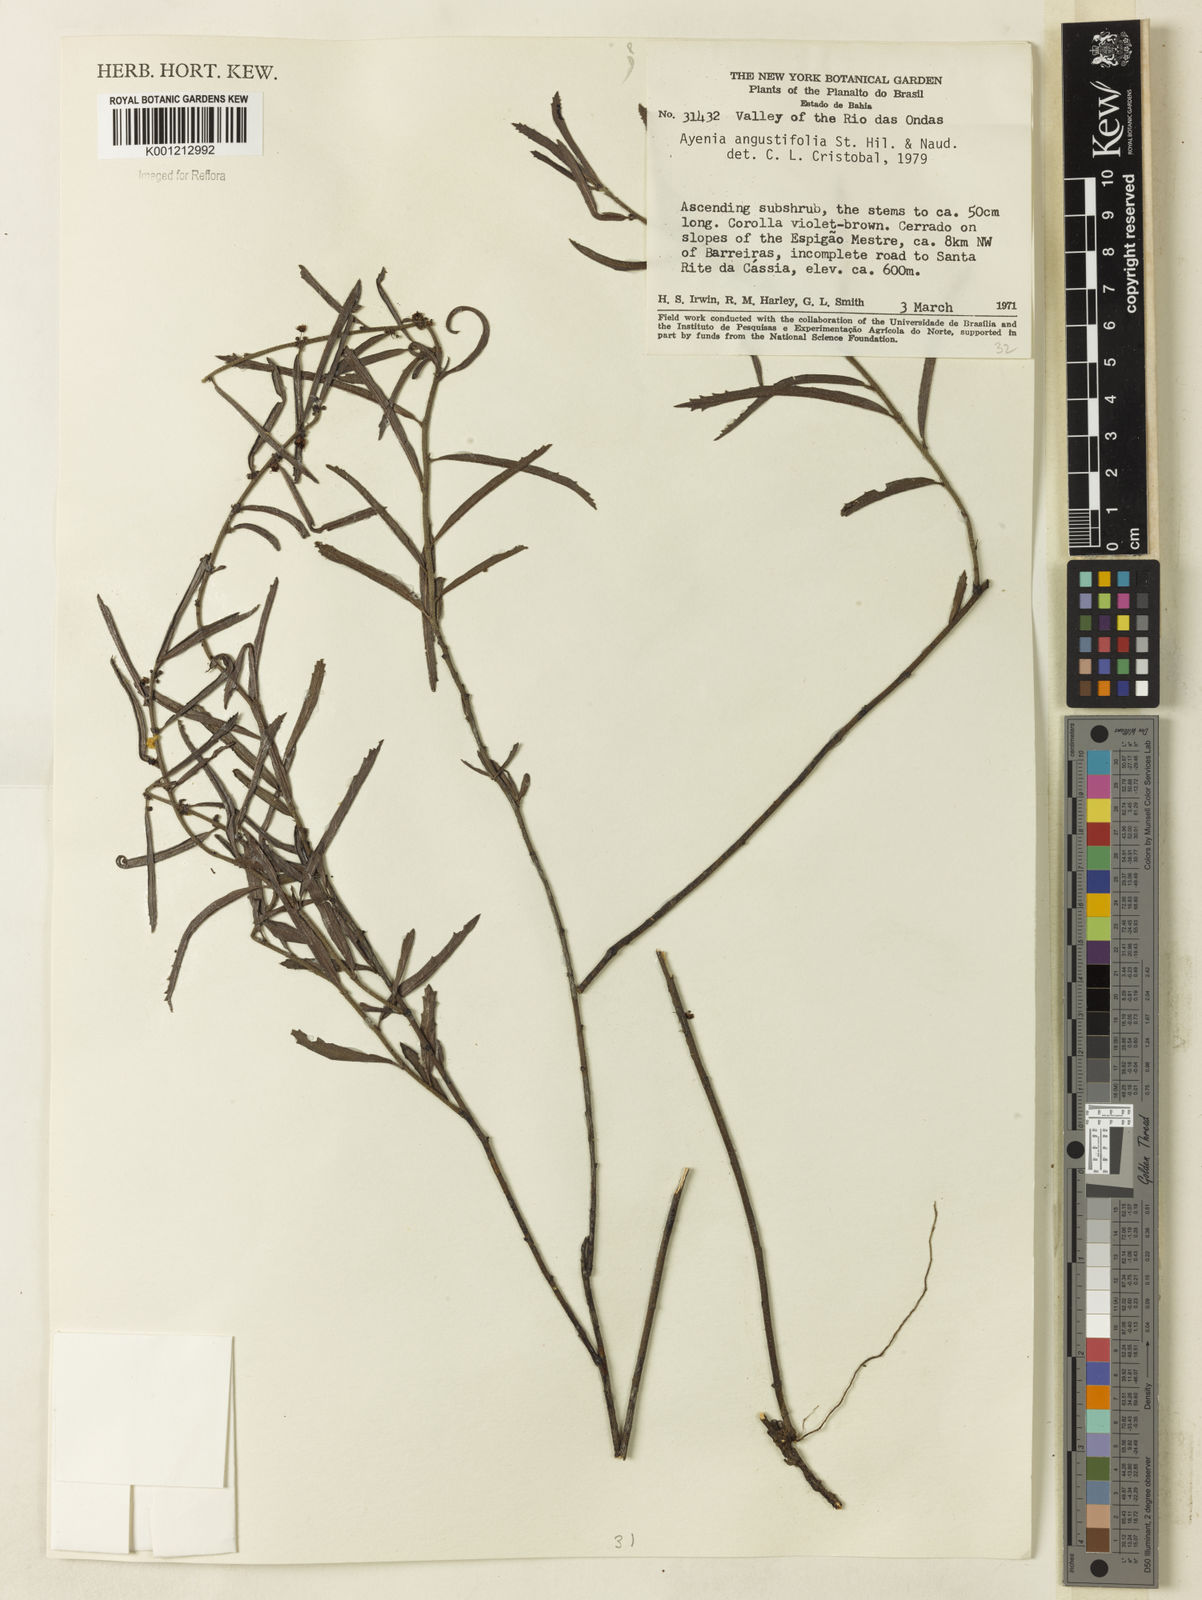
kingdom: Plantae
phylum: Tracheophyta
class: Magnoliopsida
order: Malvales
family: Malvaceae
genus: Ayenia
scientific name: Ayenia angustifolia
